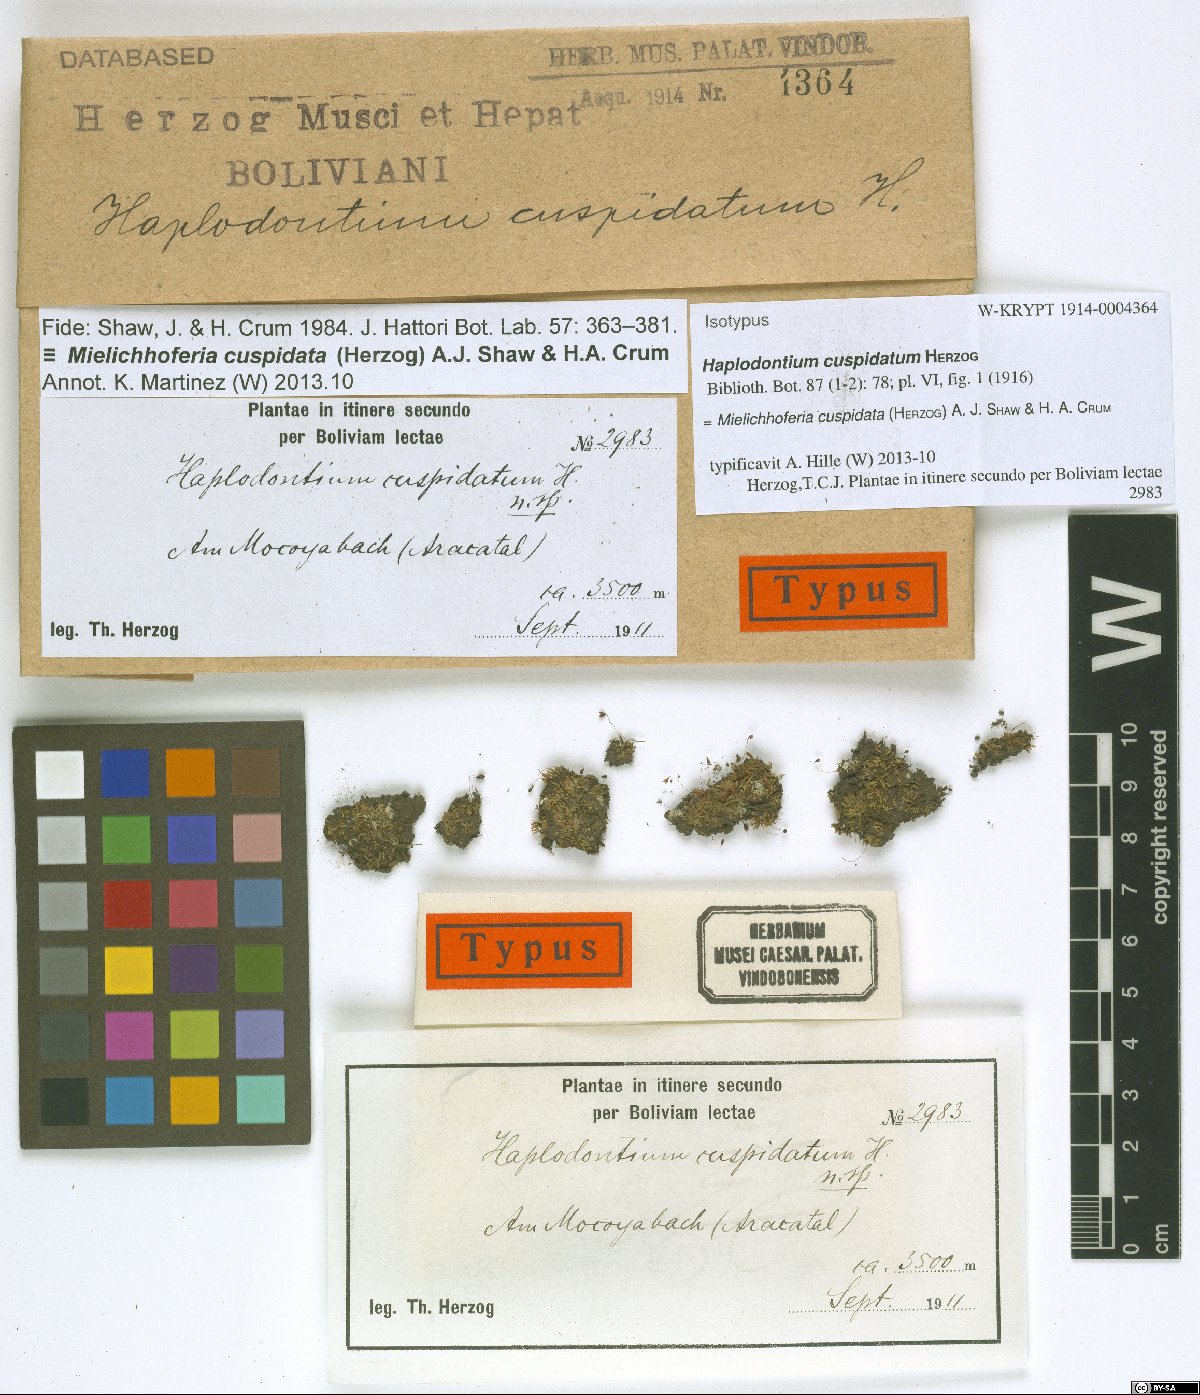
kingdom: Plantae
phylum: Bryophyta
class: Bryopsida
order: Bryales
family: Mniaceae
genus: Mielichhoferia
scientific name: Mielichhoferia cuspidata
